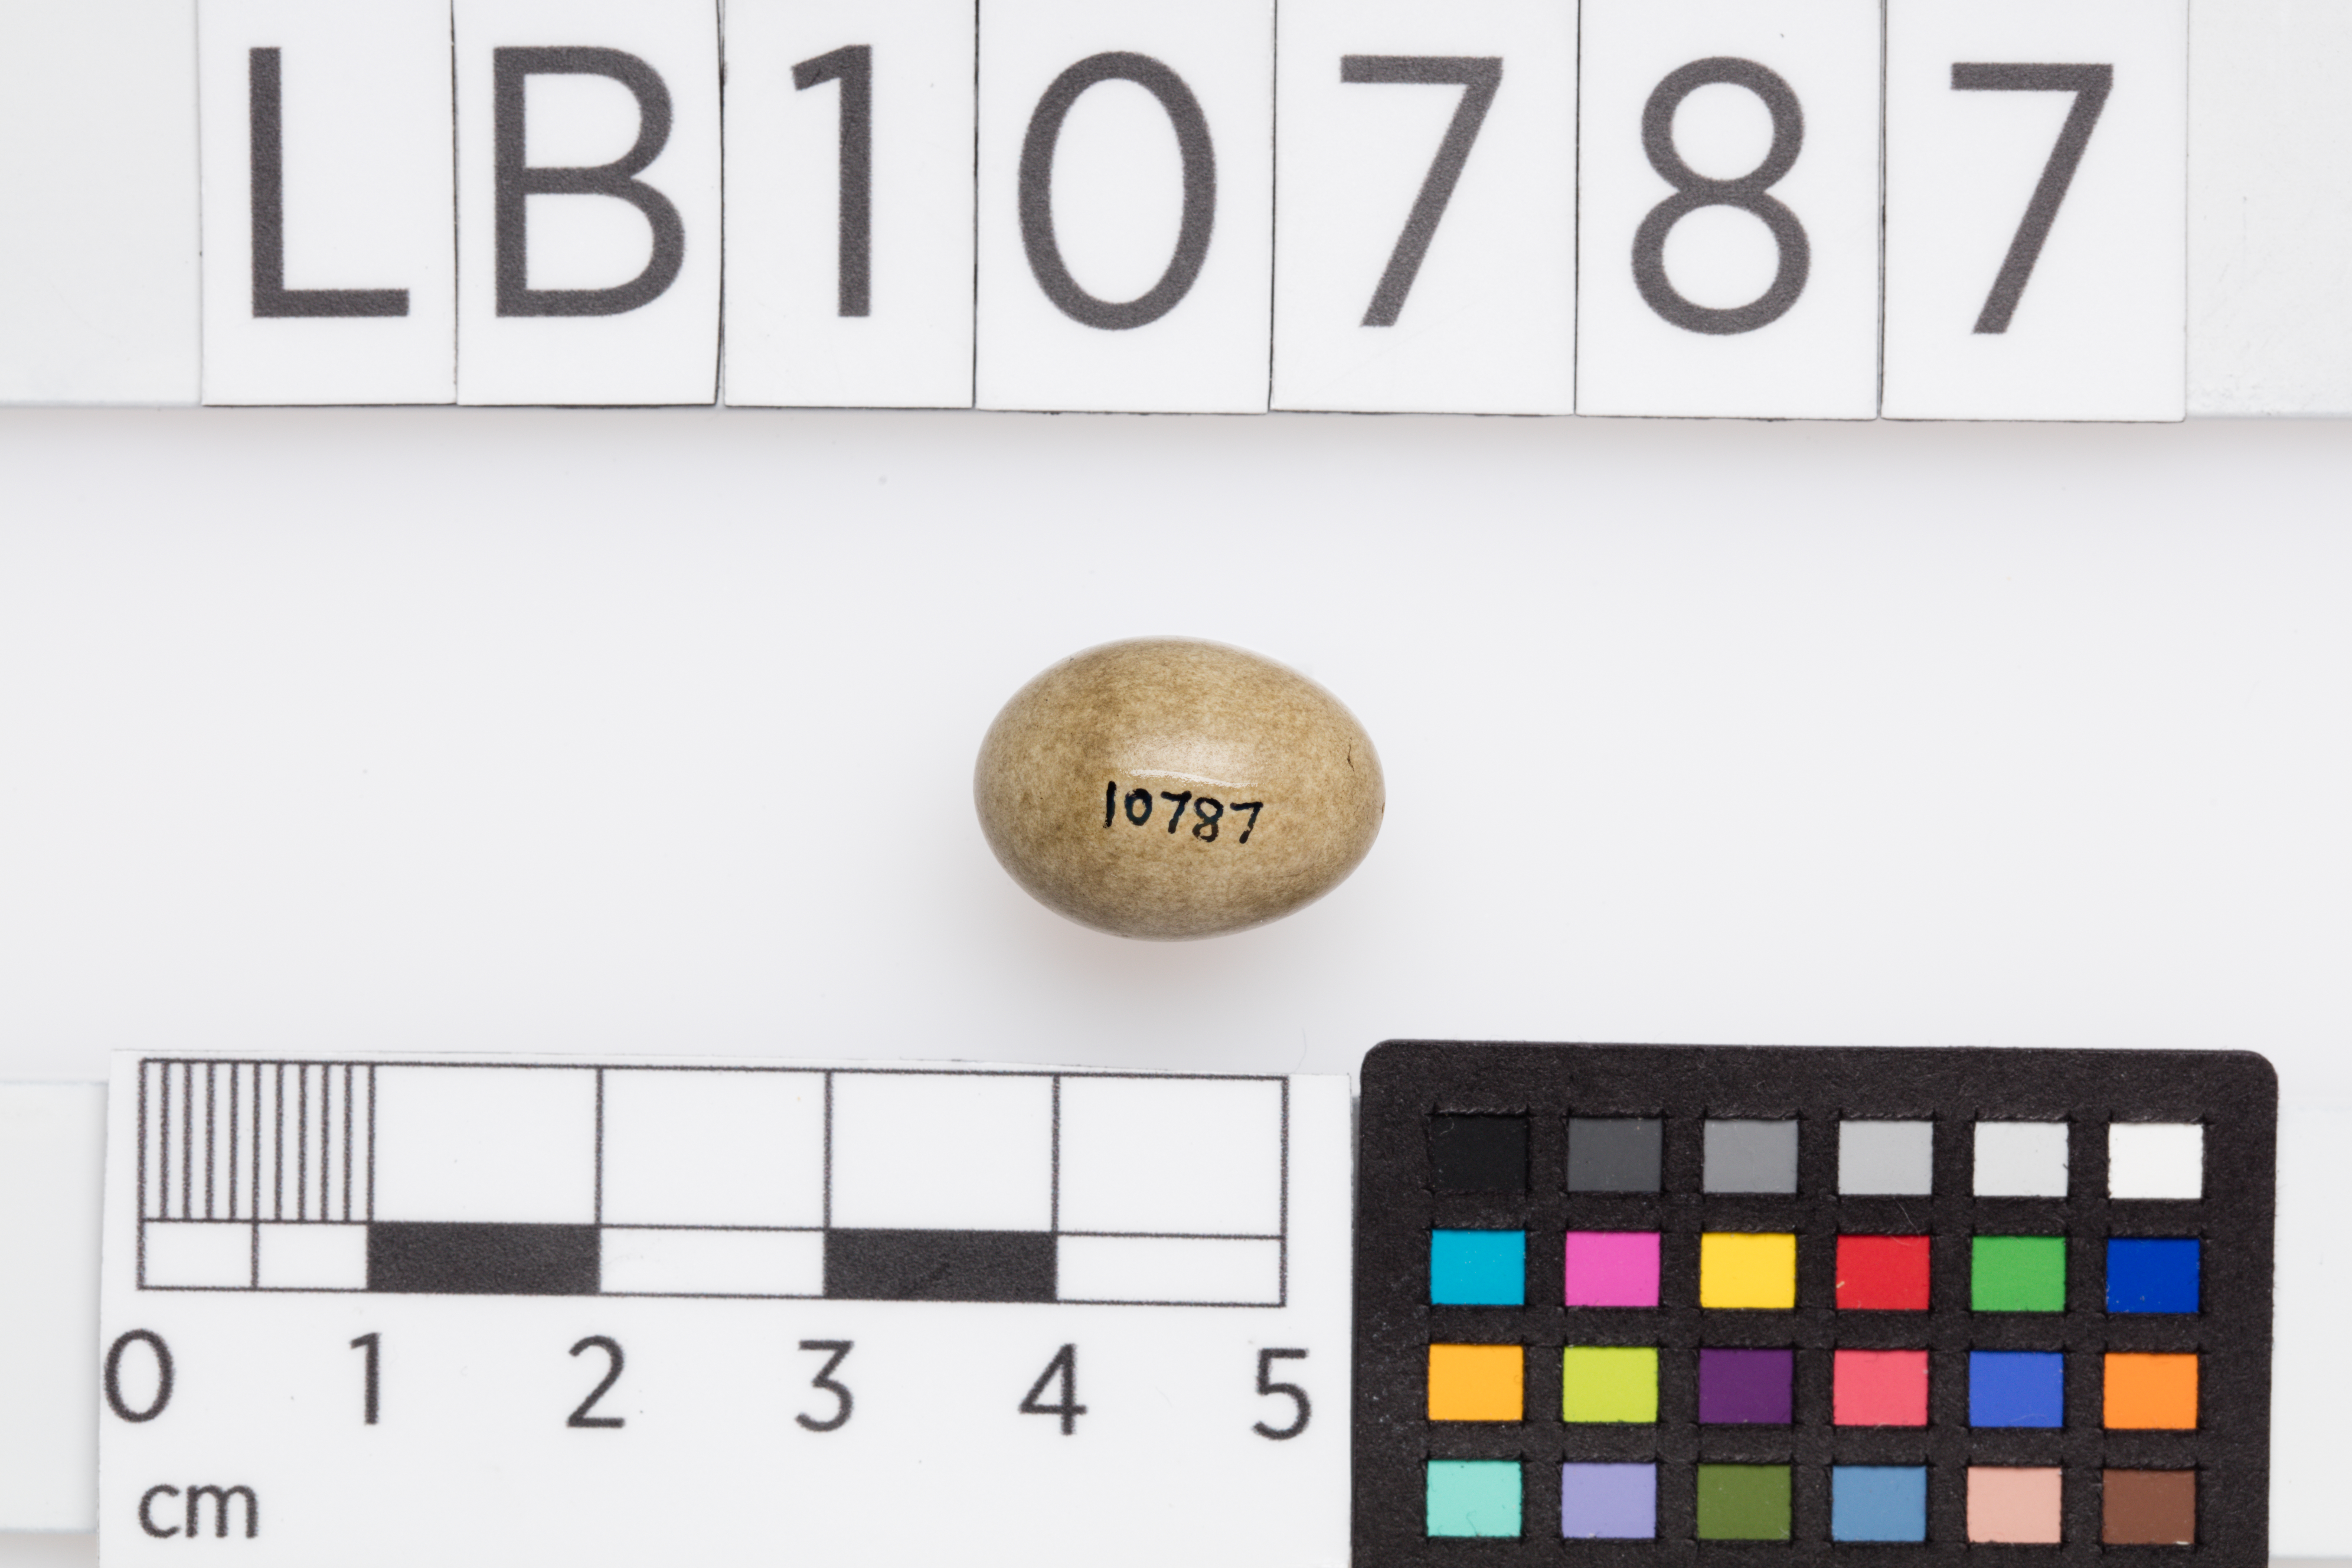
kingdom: Animalia
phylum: Chordata
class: Aves
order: Passeriformes
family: Acrocephalidae
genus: Acrocephalus
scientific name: Acrocephalus schoenobaenus
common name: Sedge warbler
